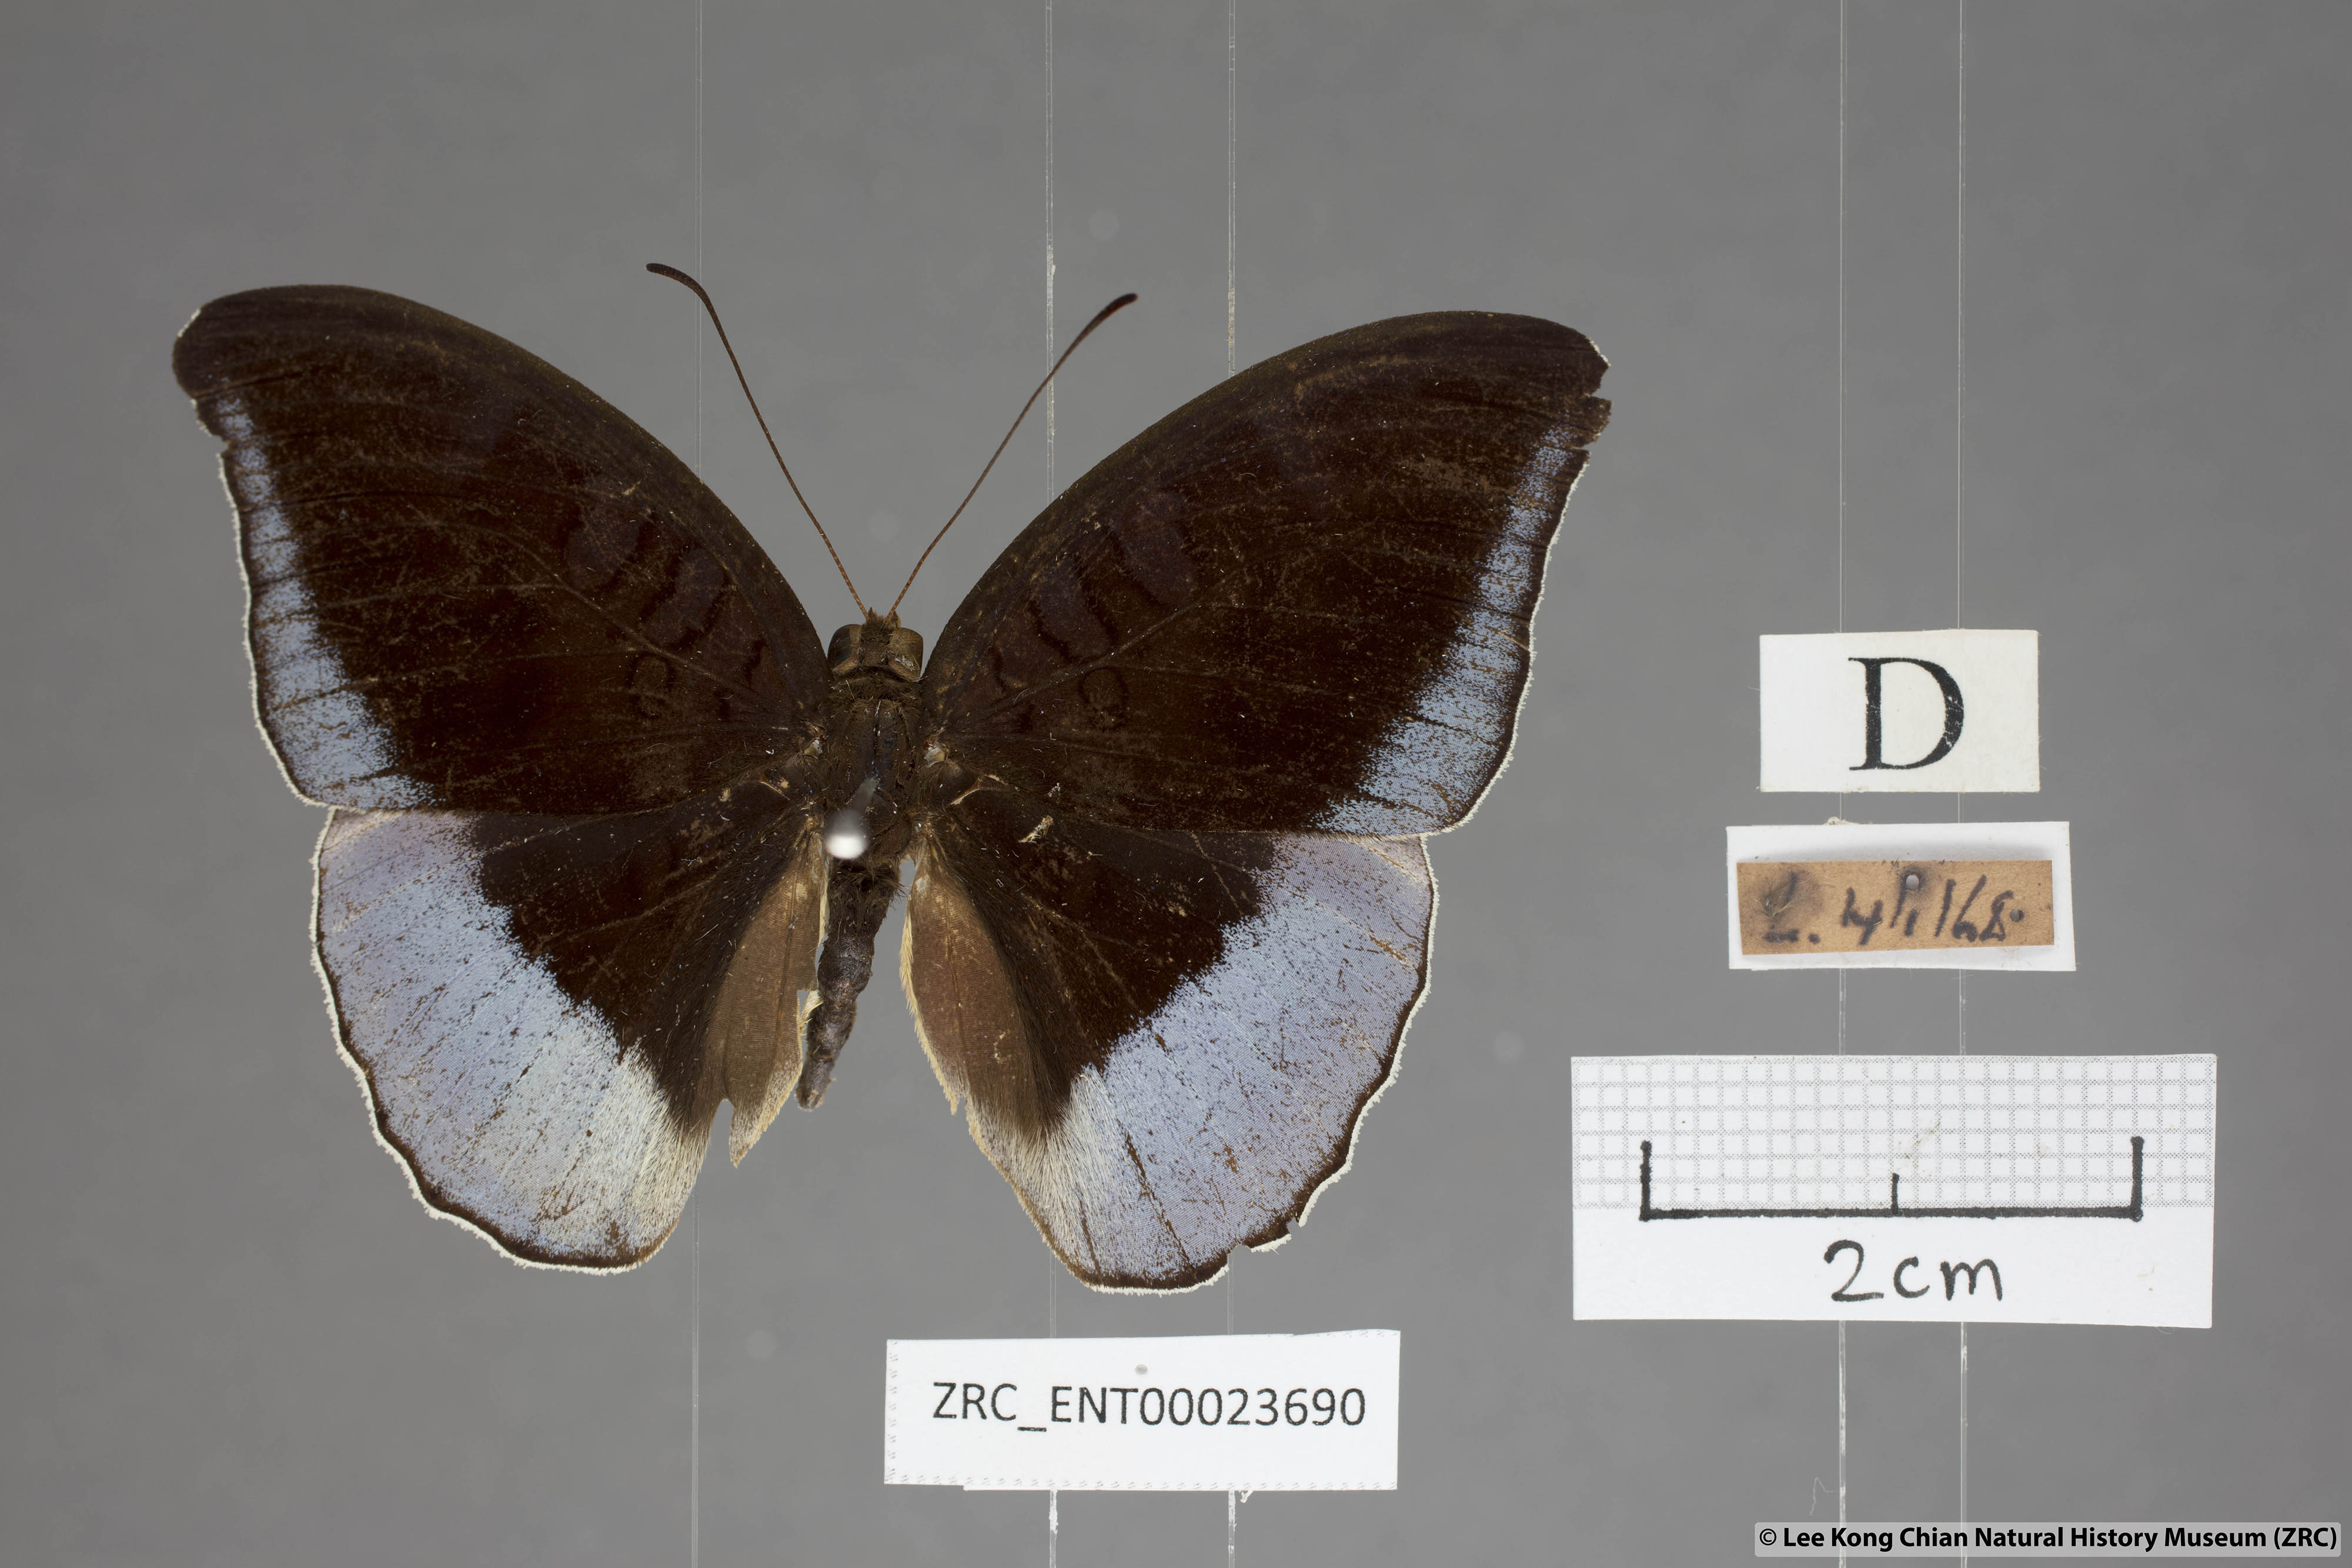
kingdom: Animalia
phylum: Arthropoda
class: Insecta
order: Lepidoptera
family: Nymphalidae
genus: Tanaecia
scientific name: Tanaecia flora
